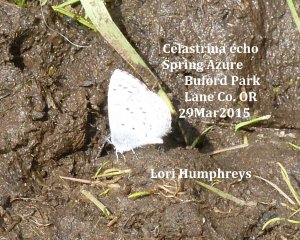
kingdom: Animalia
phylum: Arthropoda
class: Insecta
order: Lepidoptera
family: Lycaenidae
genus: Celastrina
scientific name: Celastrina ladon
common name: Spring Azure
